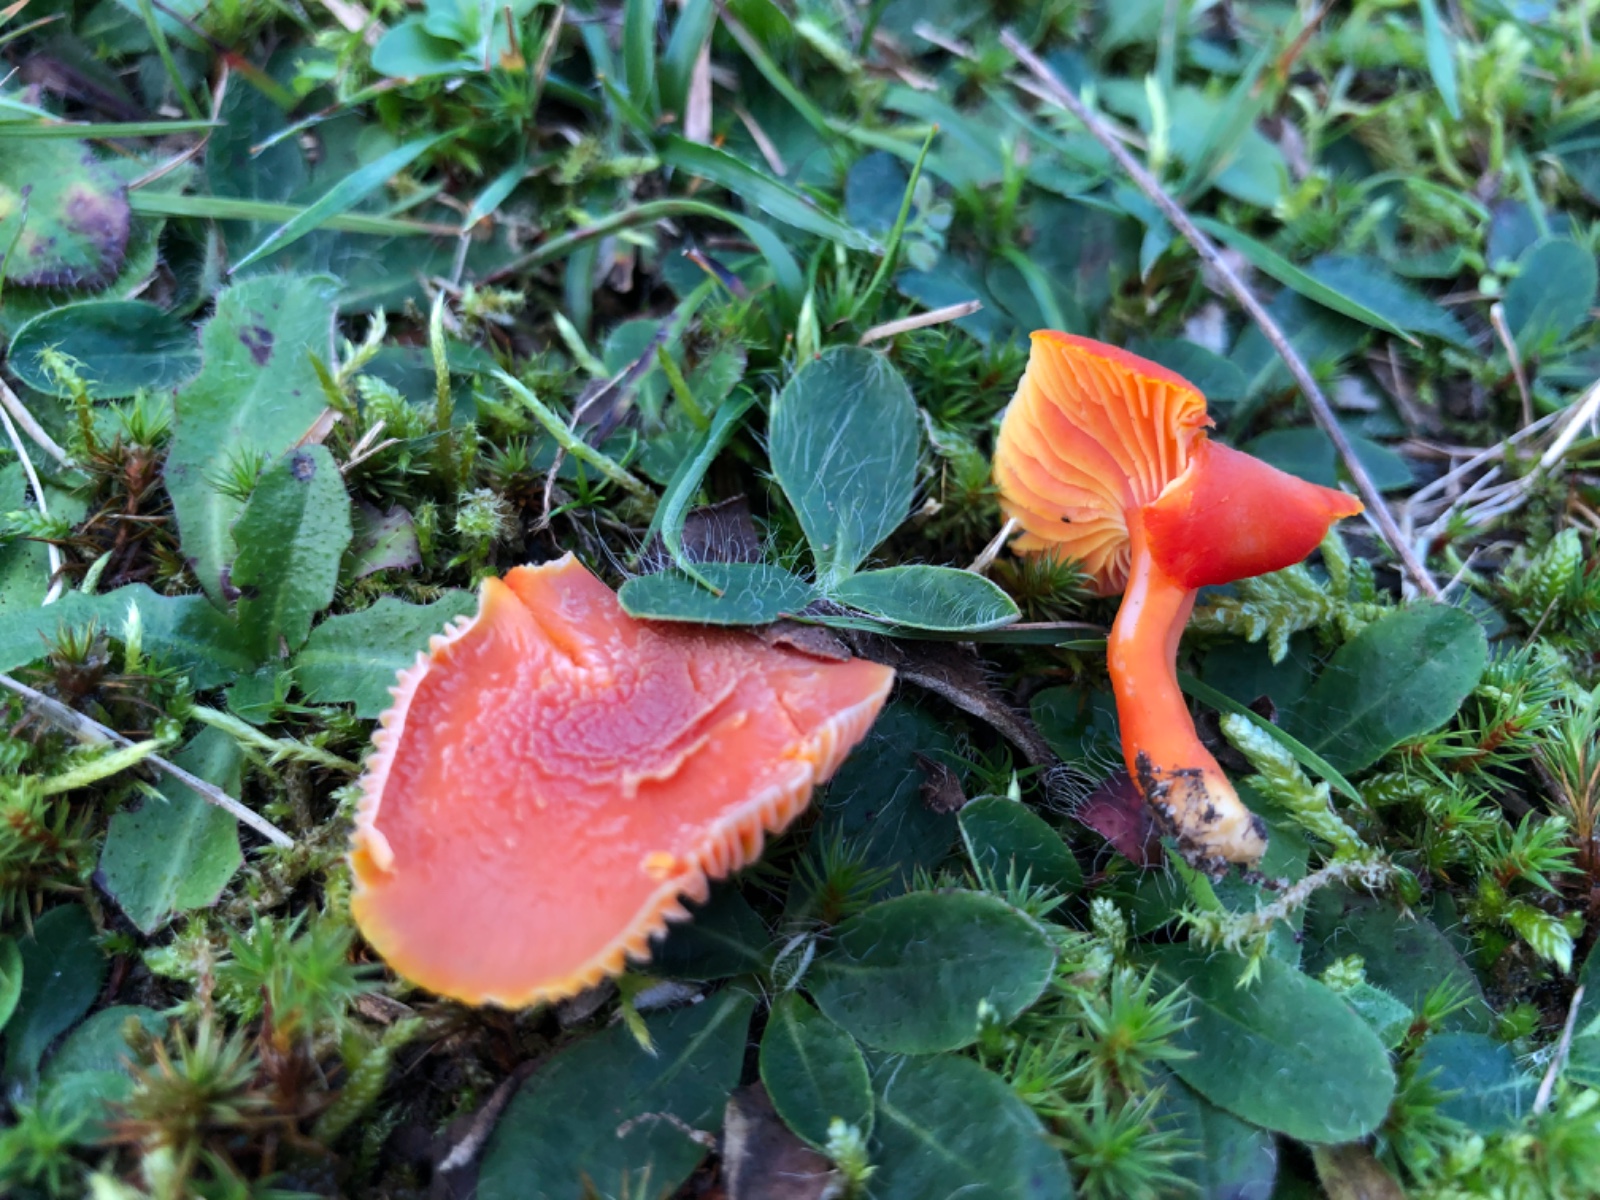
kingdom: Fungi
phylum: Basidiomycota
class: Agaricomycetes
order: Agaricales
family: Hygrophoraceae
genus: Hygrocybe
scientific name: Hygrocybe miniata
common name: mønje-vokshat
